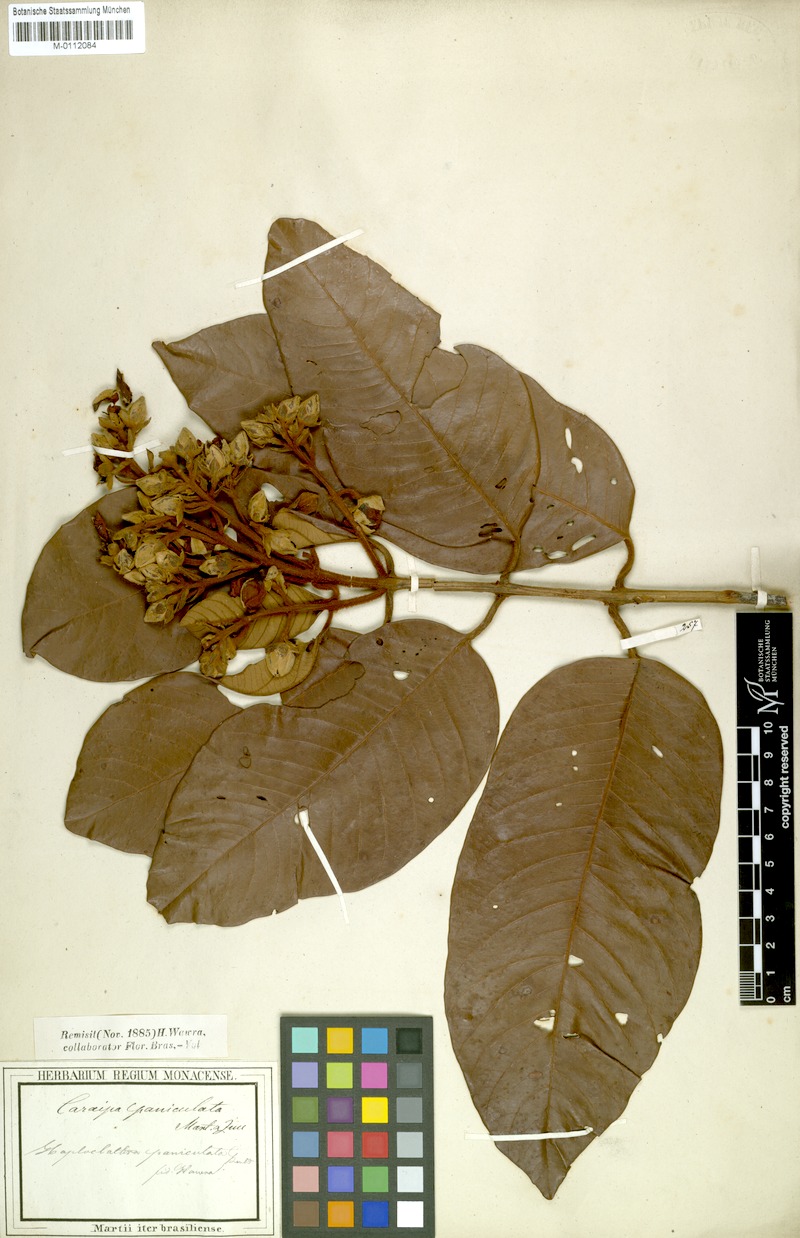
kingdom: Plantae
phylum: Tracheophyta
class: Magnoliopsida
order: Malpighiales
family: Calophyllaceae
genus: Haploclathra
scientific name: Haploclathra paniculata
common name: Red-wood
